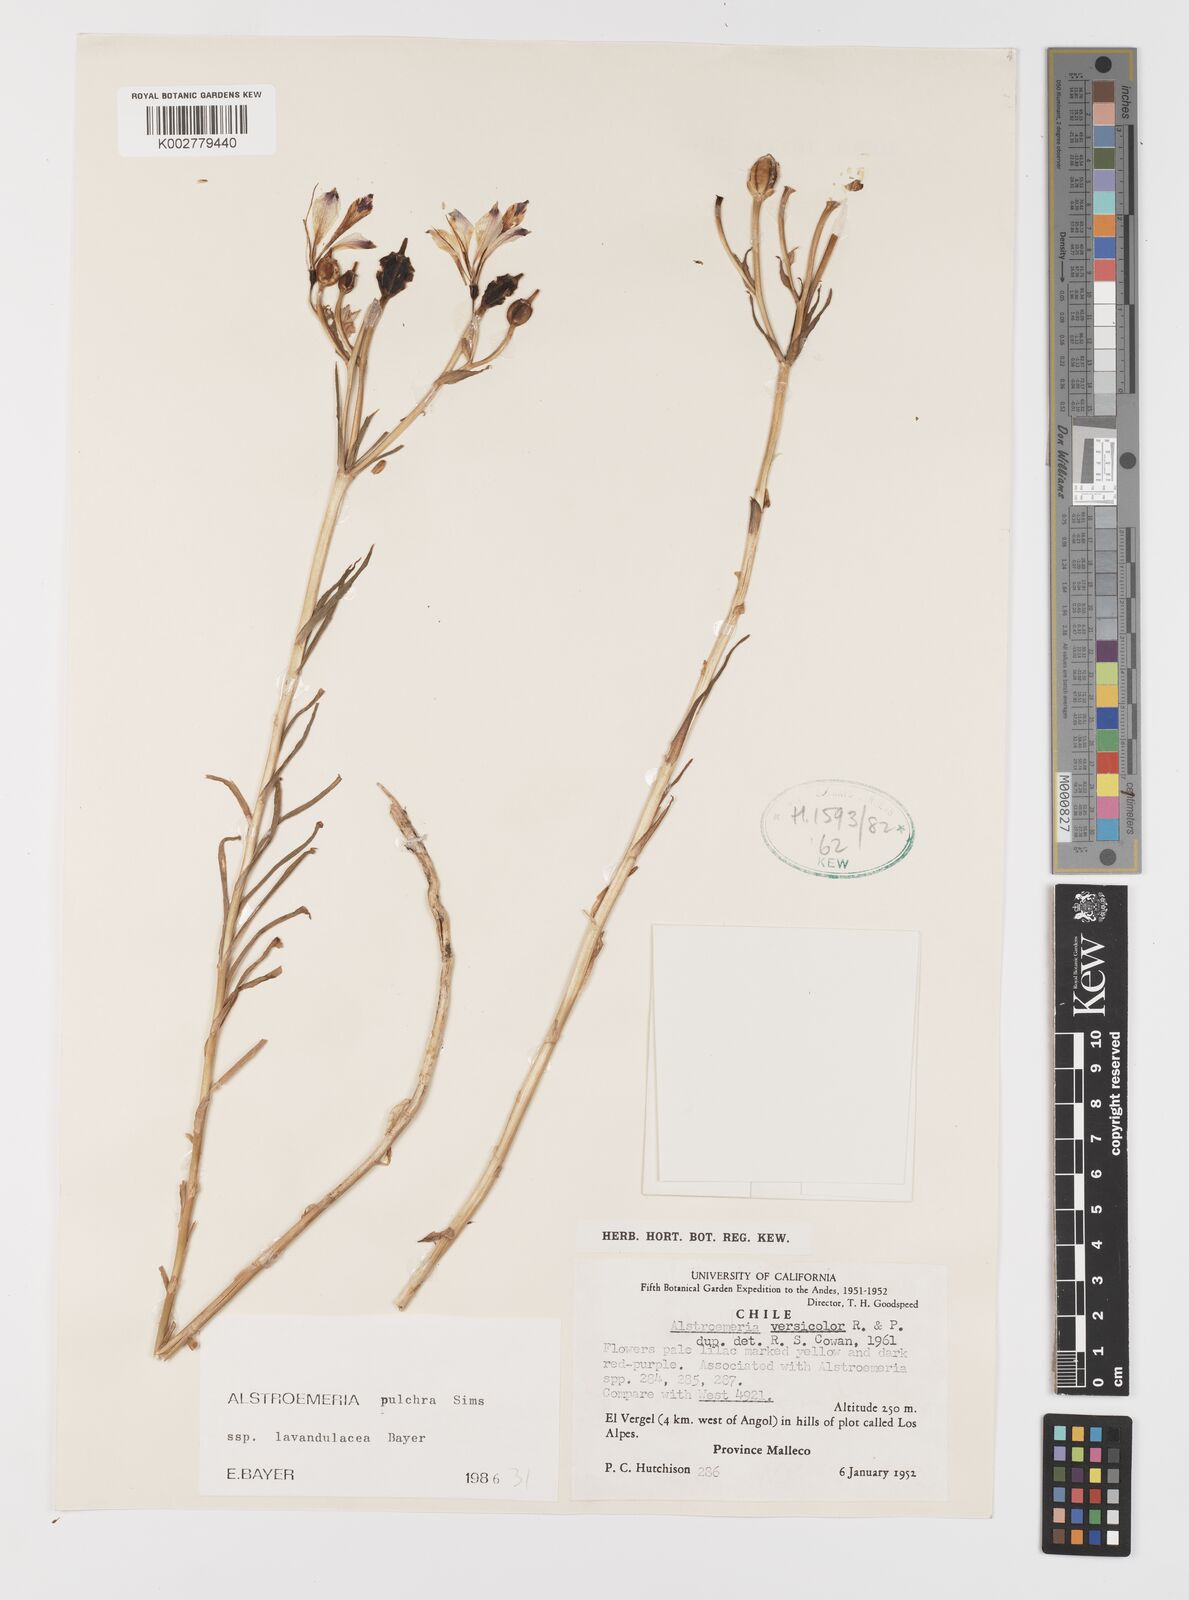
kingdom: Plantae
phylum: Tracheophyta
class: Liliopsida
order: Liliales
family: Alstroemeriaceae
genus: Alstroemeria
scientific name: Alstroemeria pulchra
